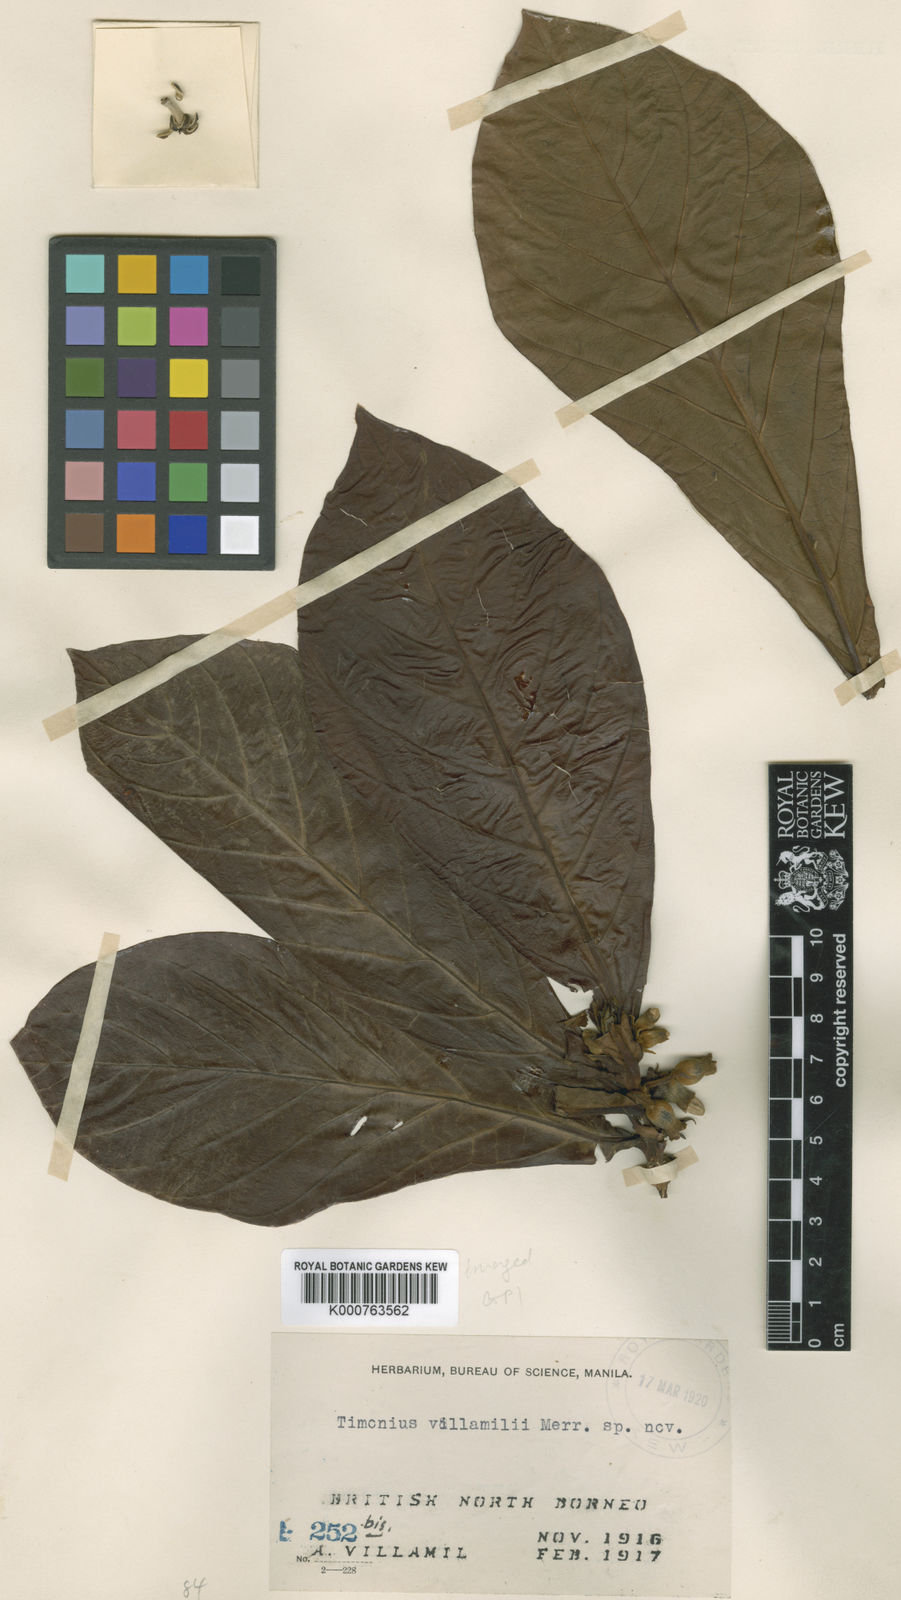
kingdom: Plantae
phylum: Tracheophyta
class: Magnoliopsida
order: Gentianales
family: Rubiaceae
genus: Timonius
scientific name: Timonius palawanensis
